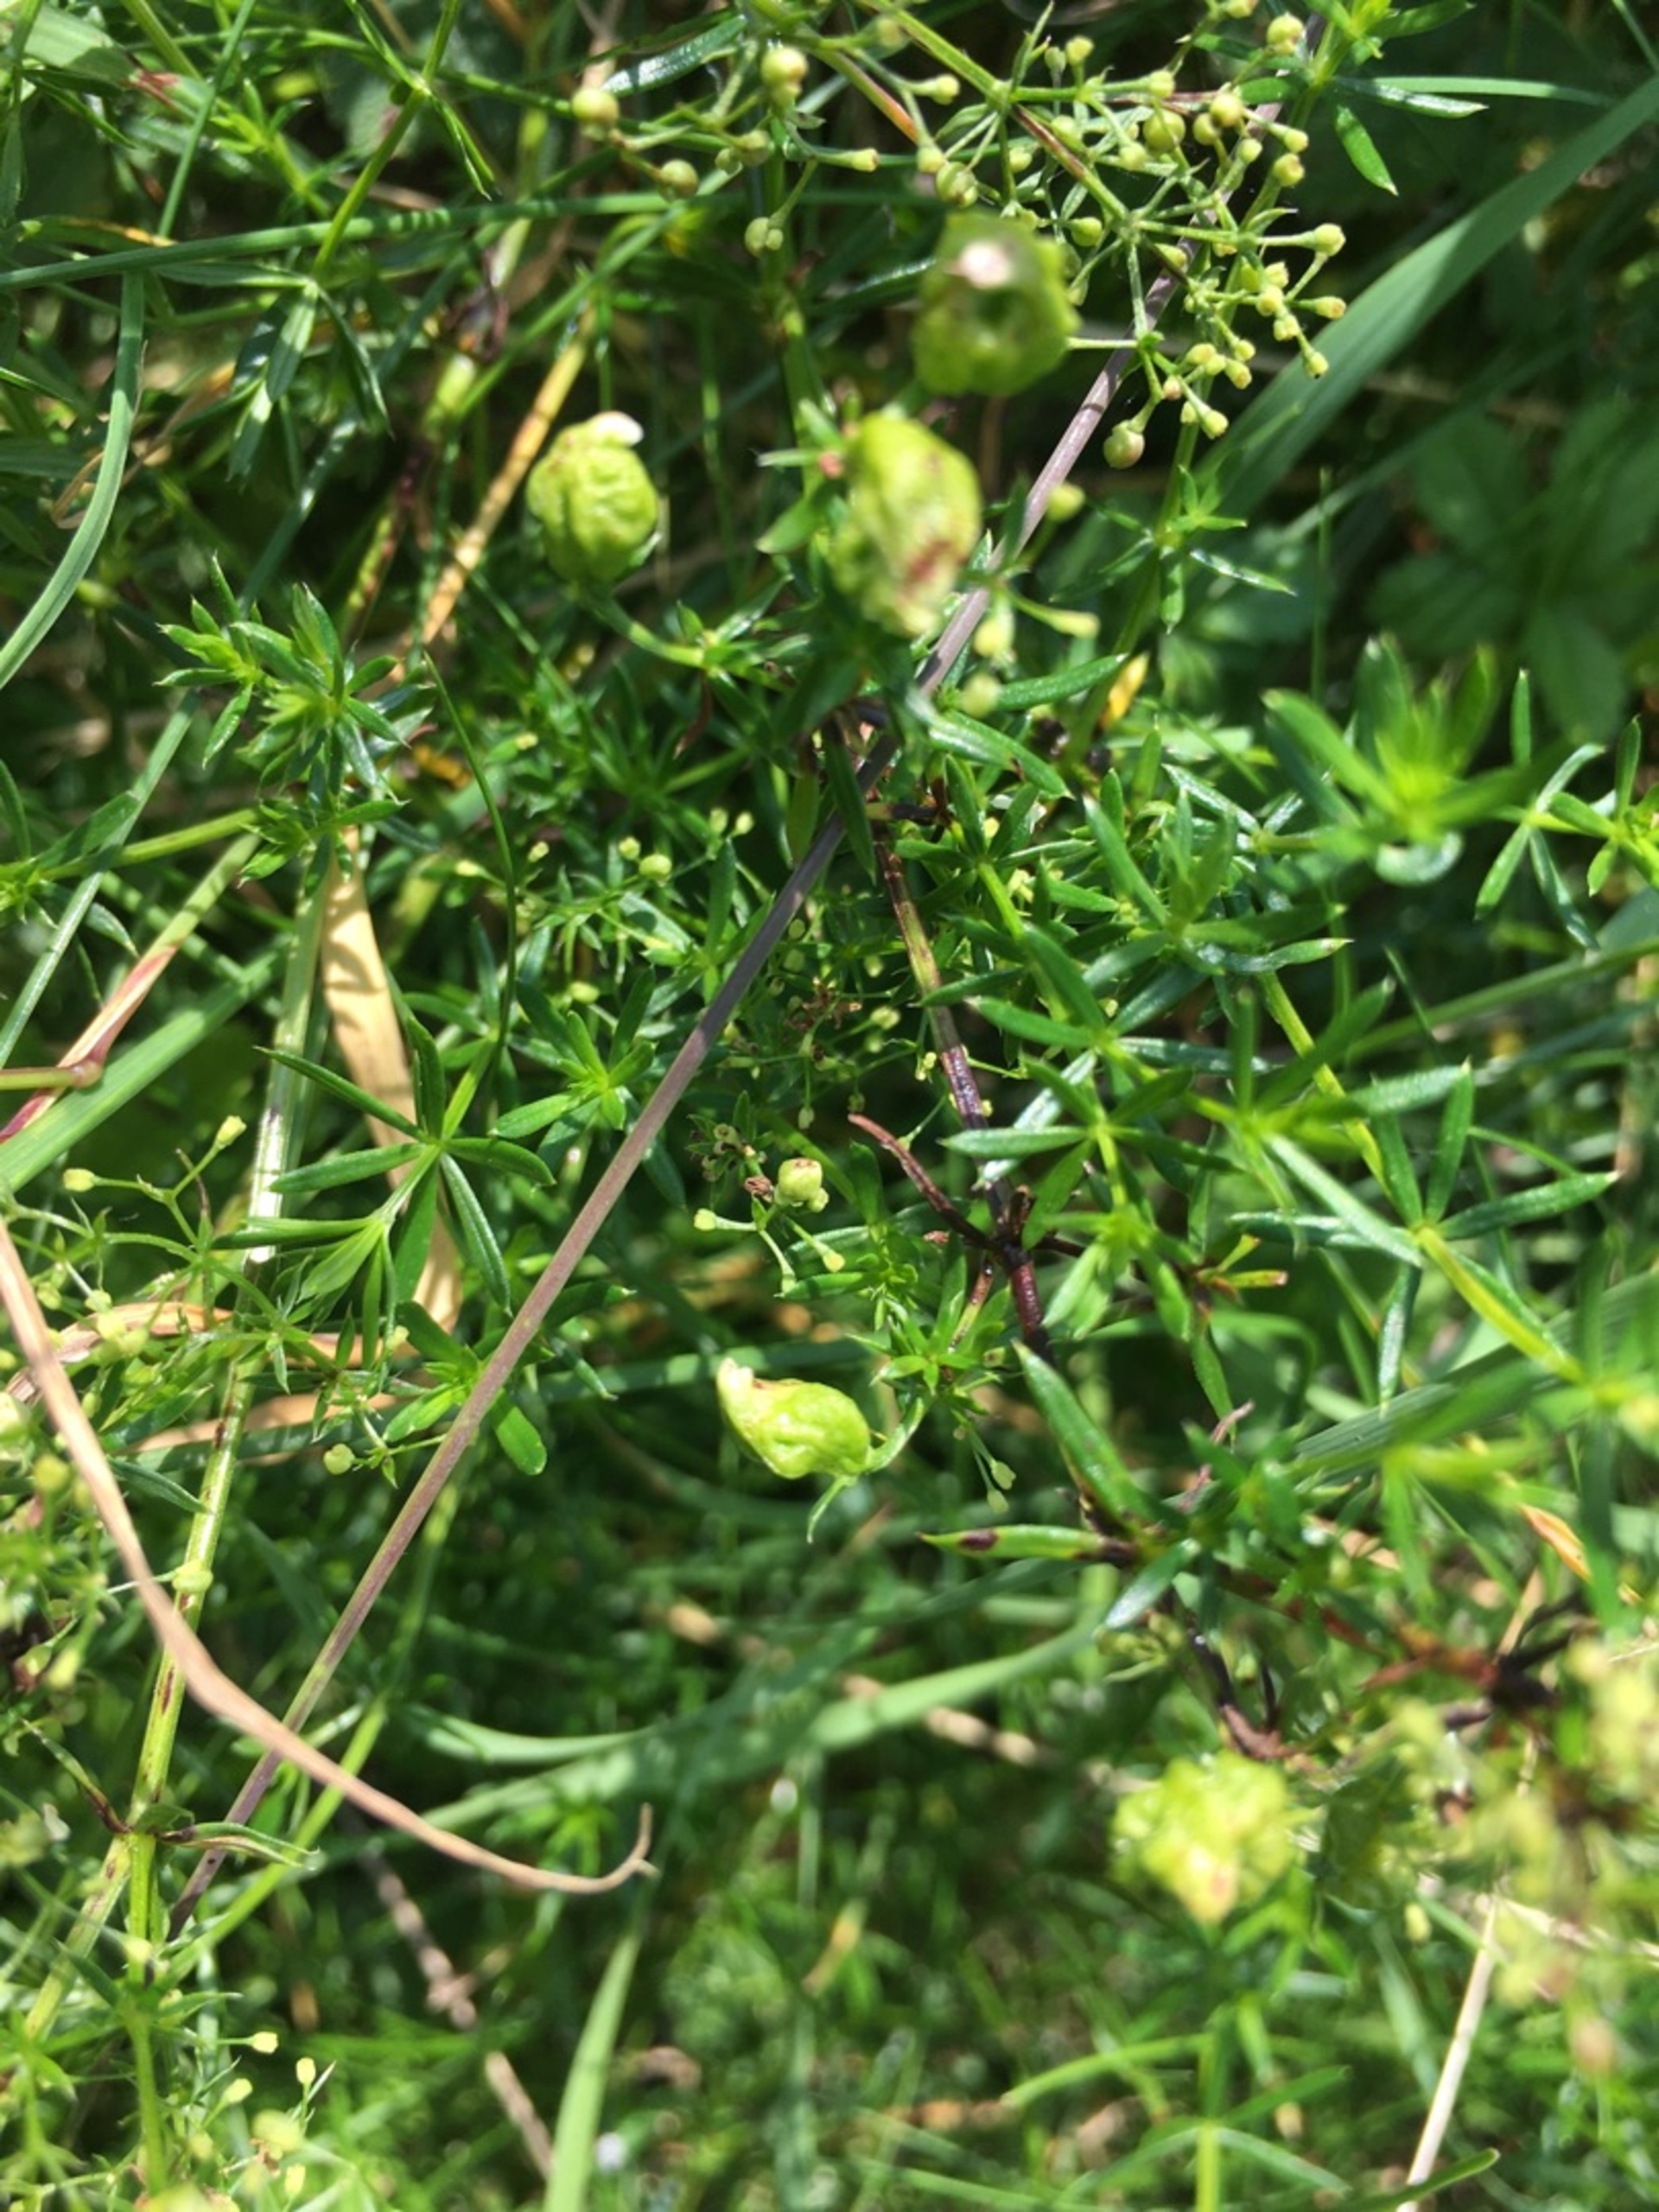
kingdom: Animalia
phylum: Arthropoda
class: Arachnida
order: Trombidiformes
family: Eriophyidae
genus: Aceria
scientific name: Aceria galiobia
